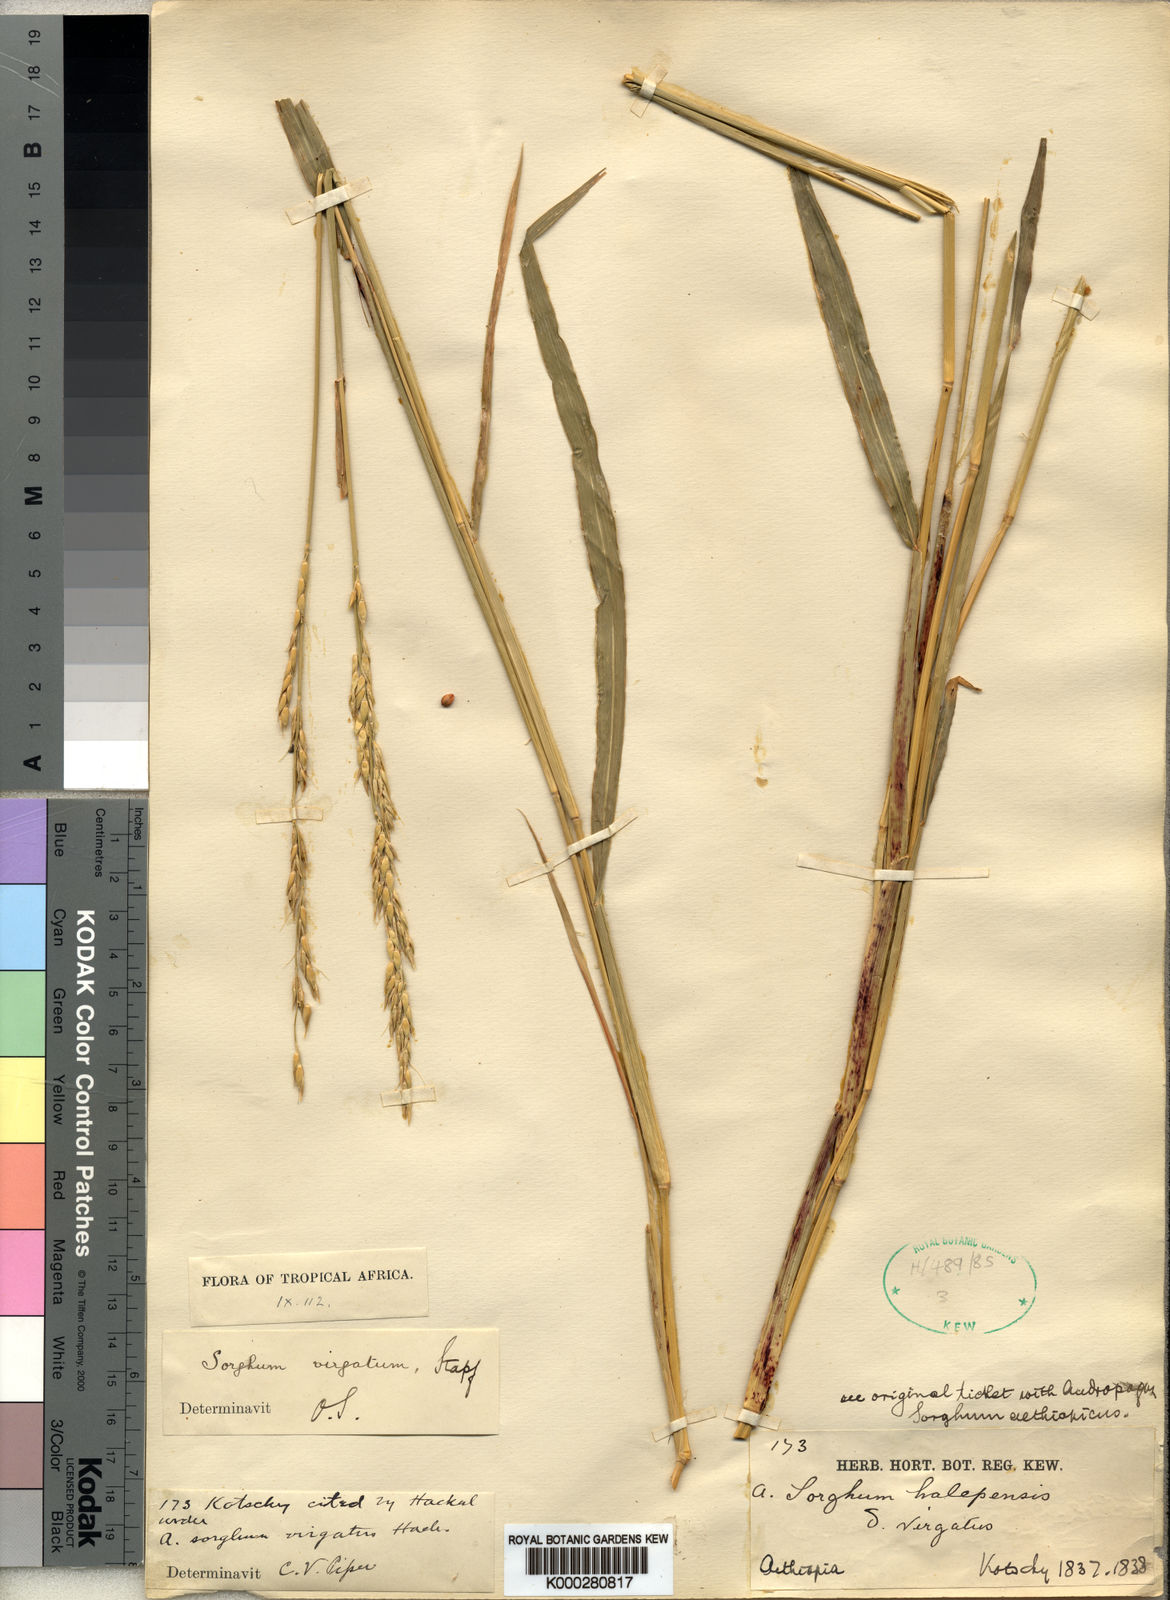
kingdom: Plantae
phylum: Tracheophyta
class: Liliopsida
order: Poales
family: Poaceae
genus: Sorghum
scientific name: Sorghum virgatum
